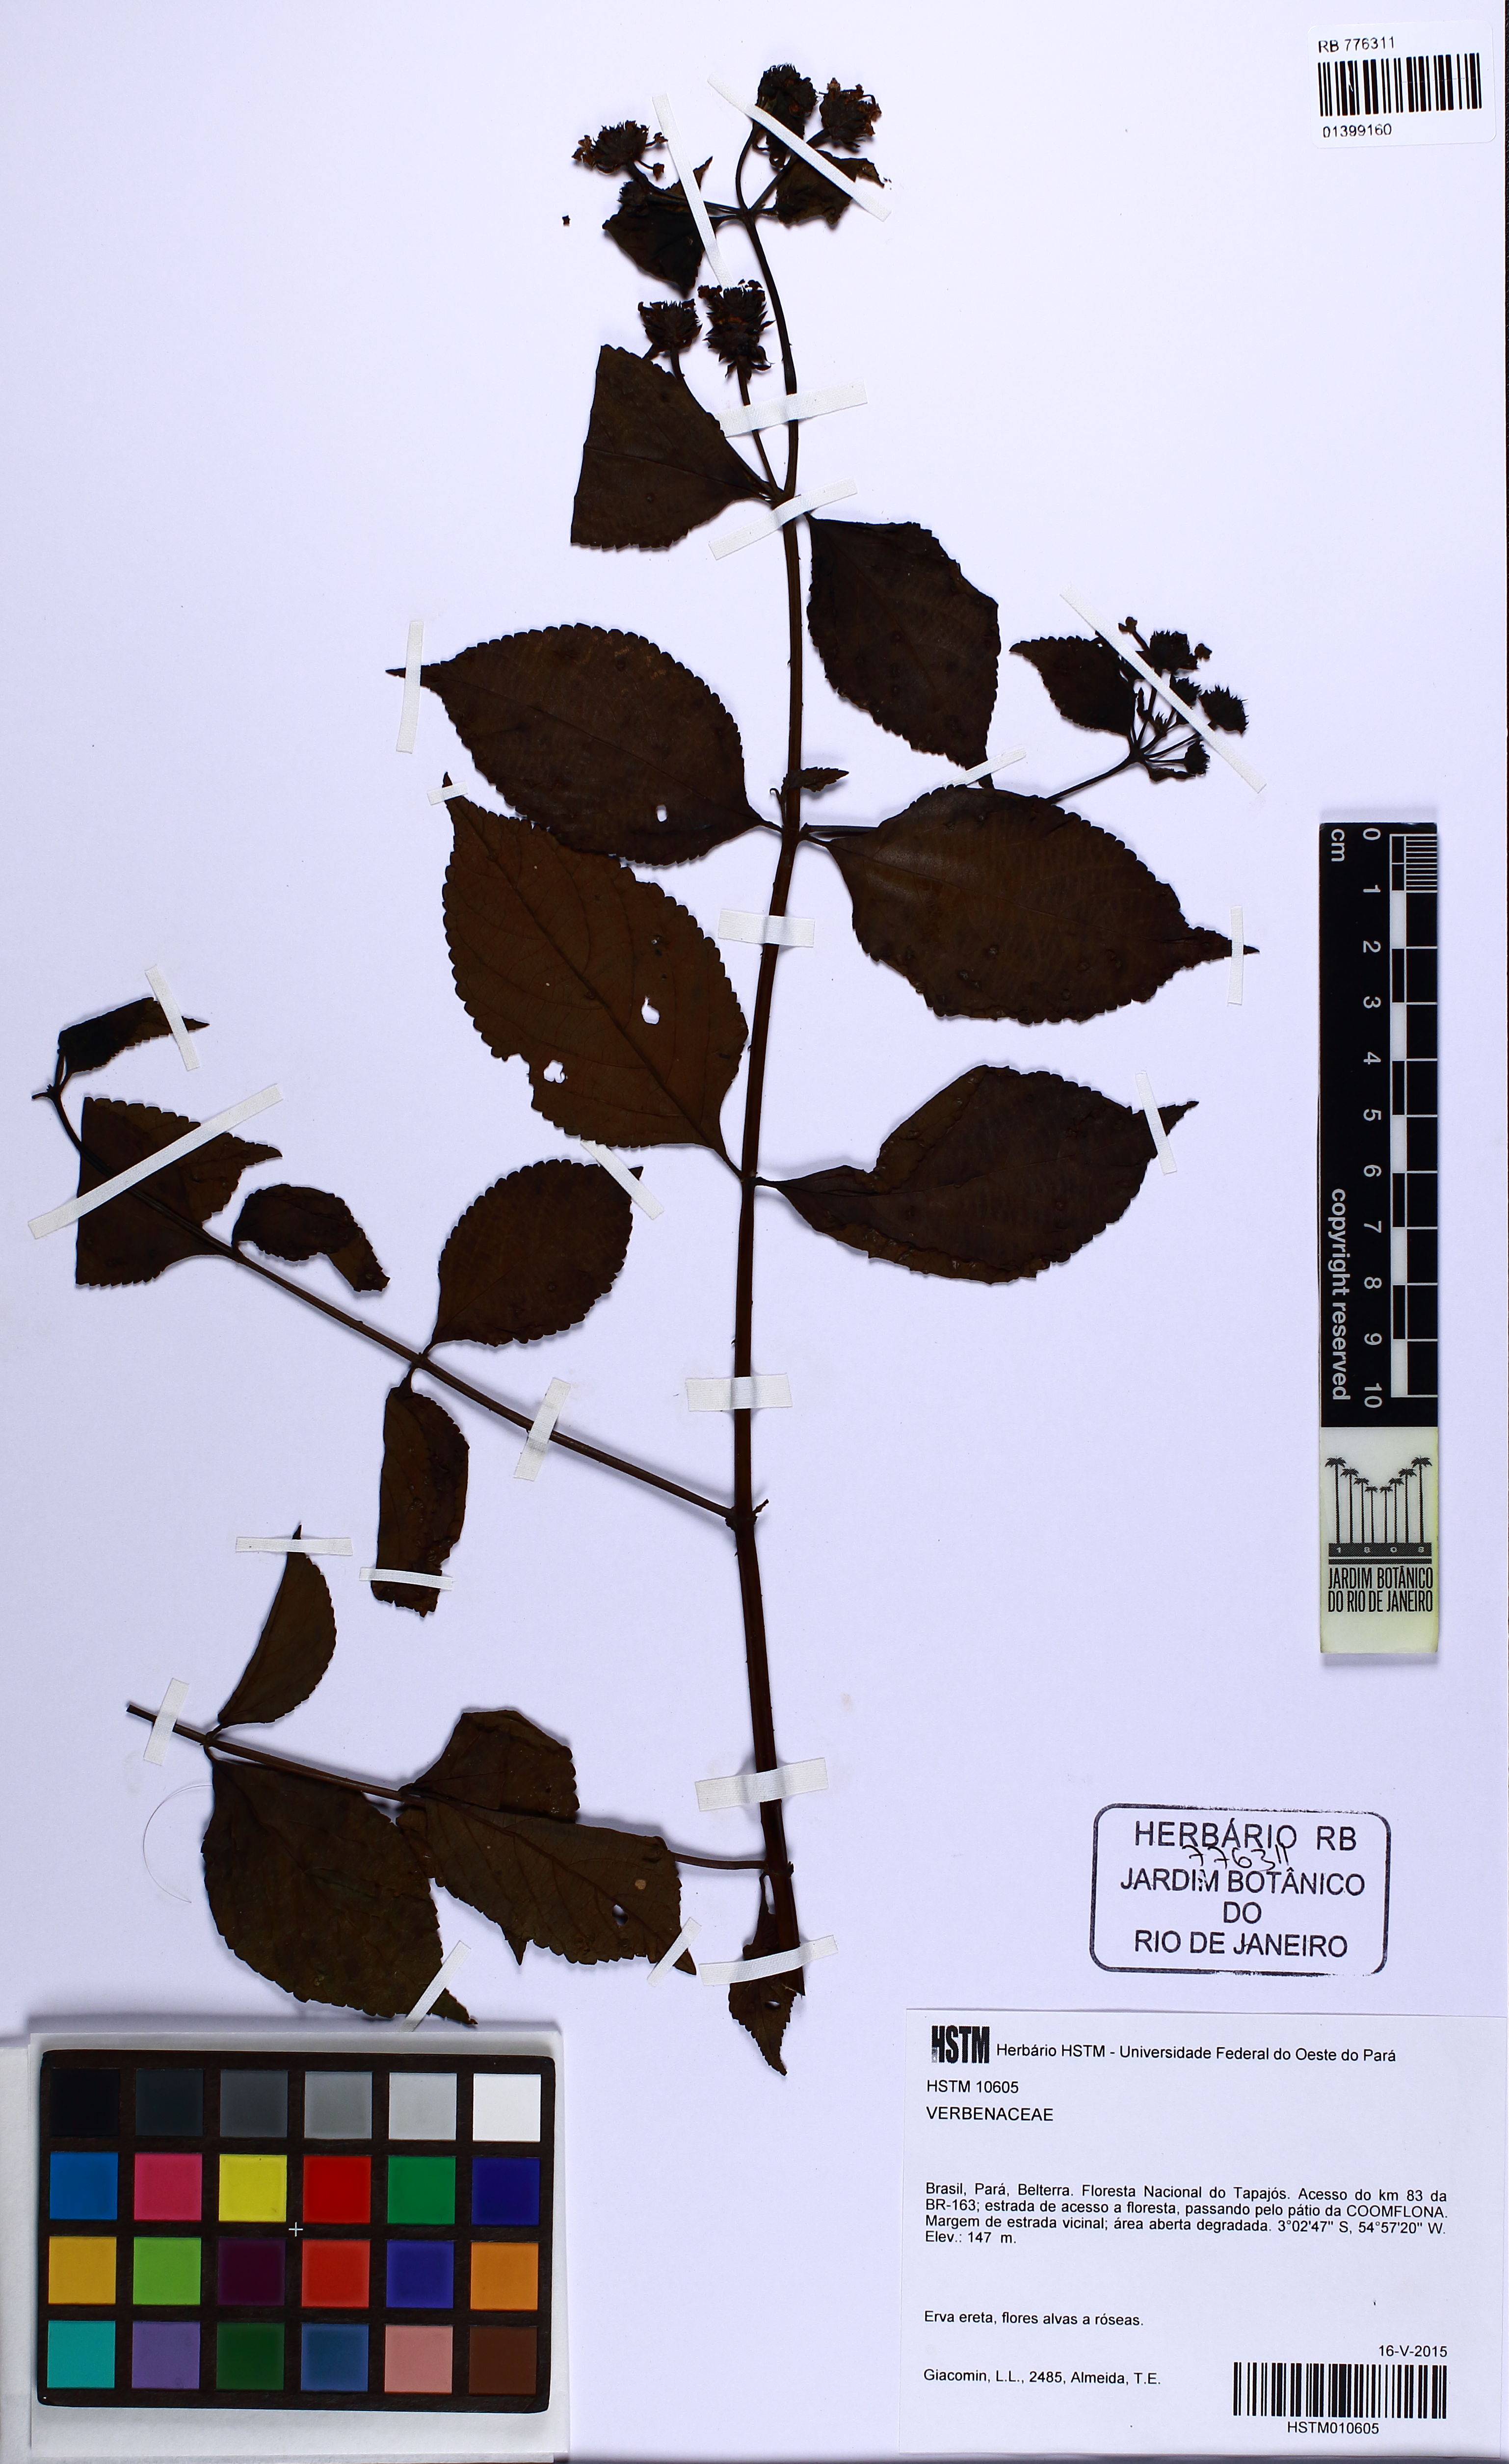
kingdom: Plantae
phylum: Tracheophyta
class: Magnoliopsida
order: Lamiales
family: Verbenaceae
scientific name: Verbenaceae
